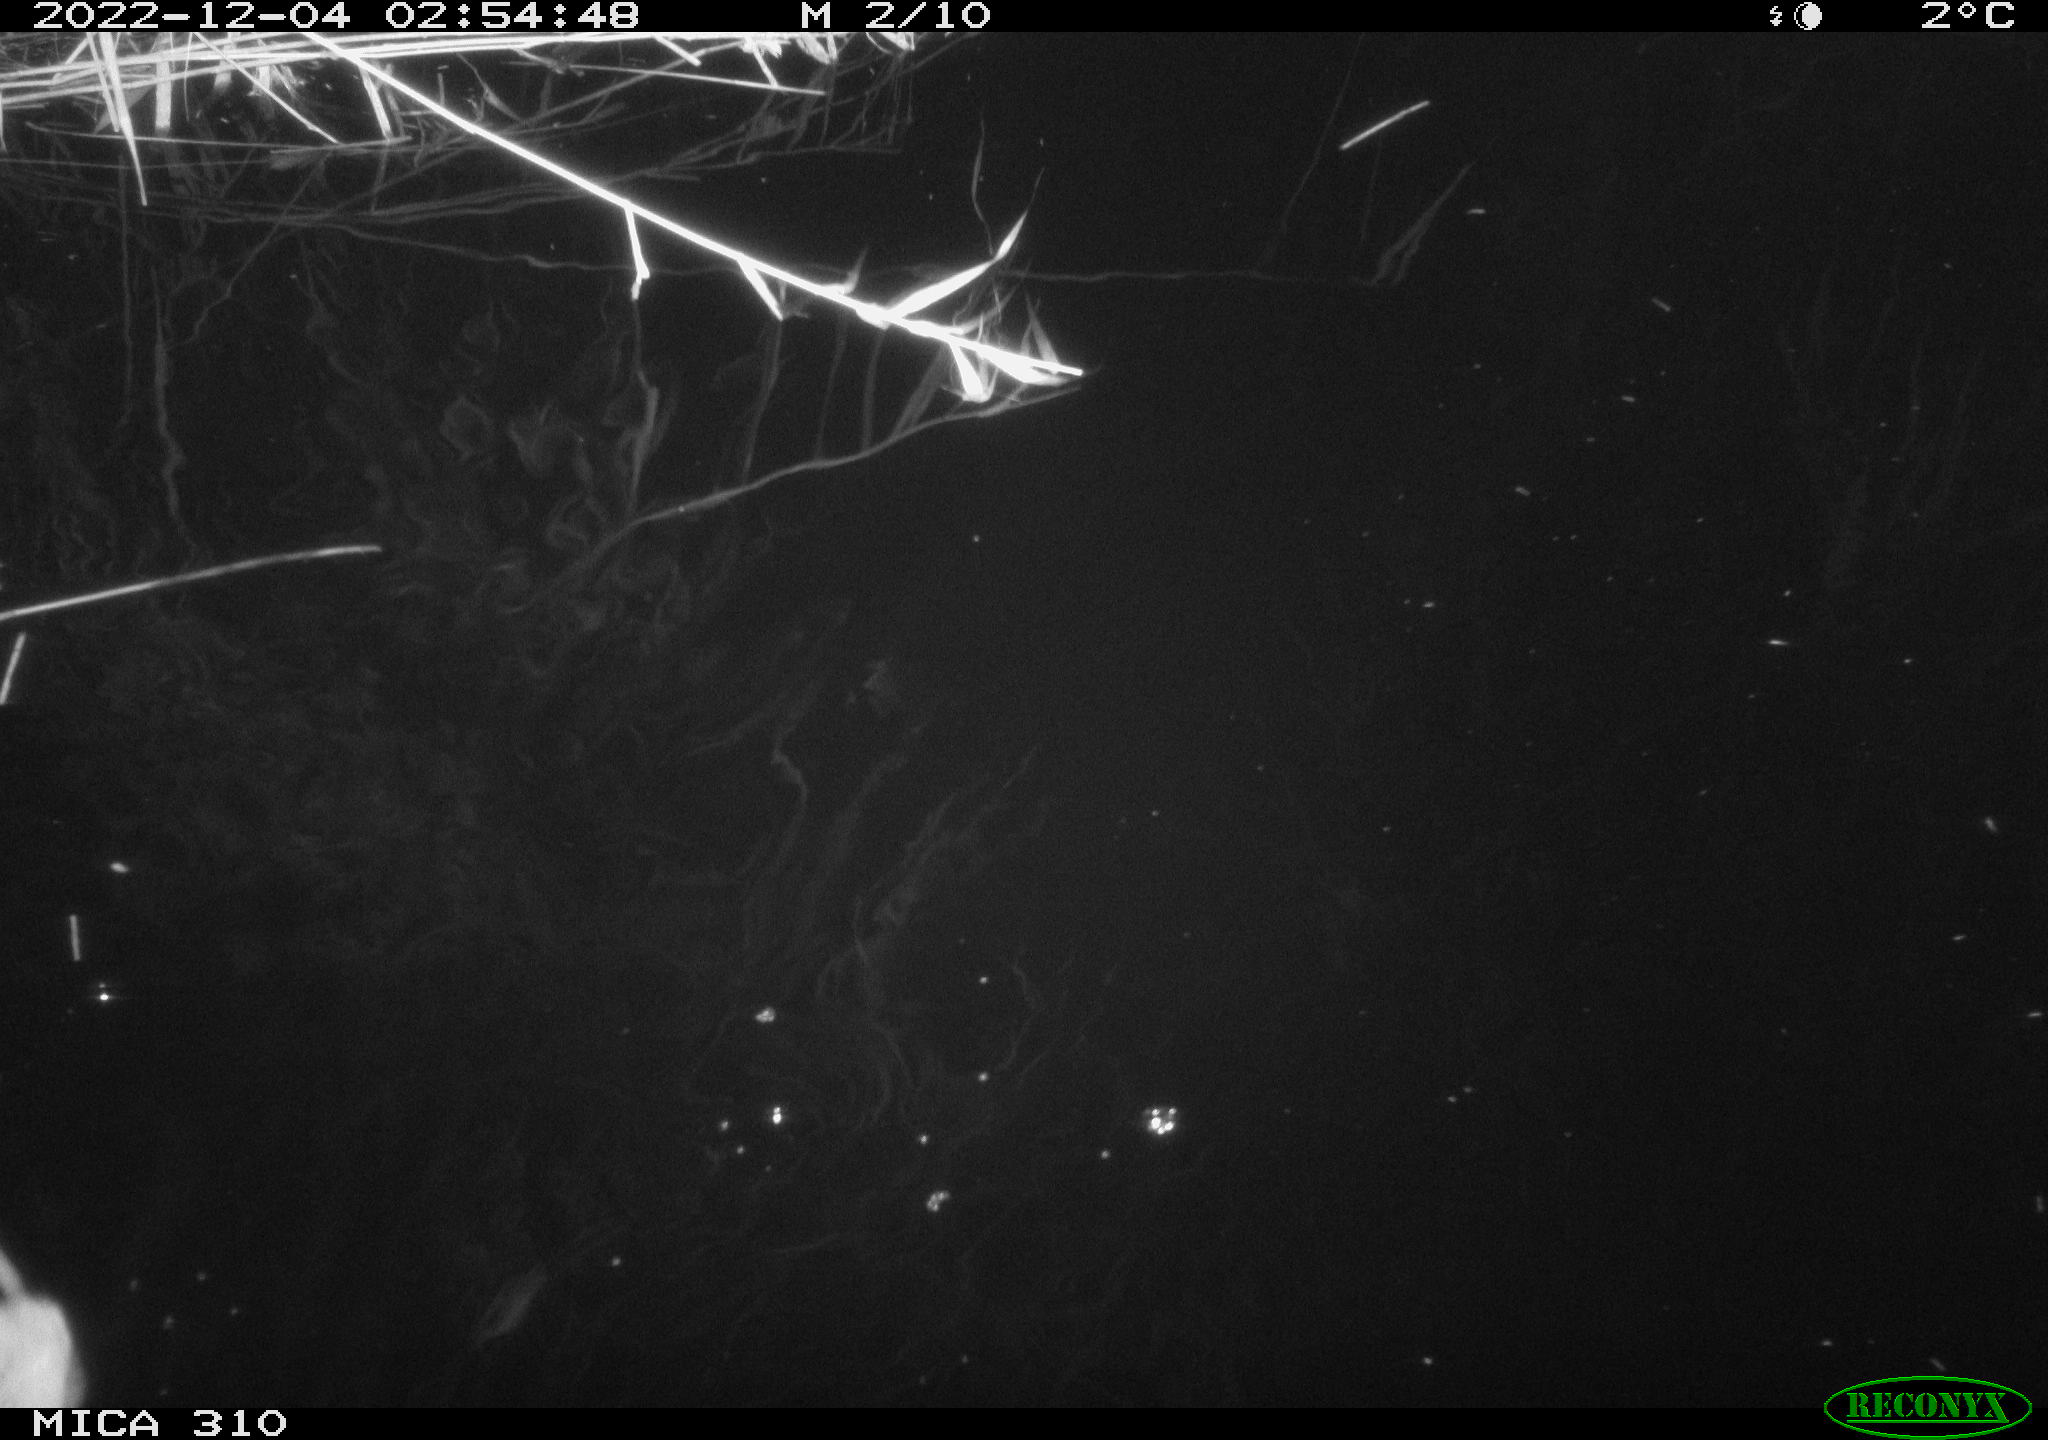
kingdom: Animalia
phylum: Chordata
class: Mammalia
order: Rodentia
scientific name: Rodentia
